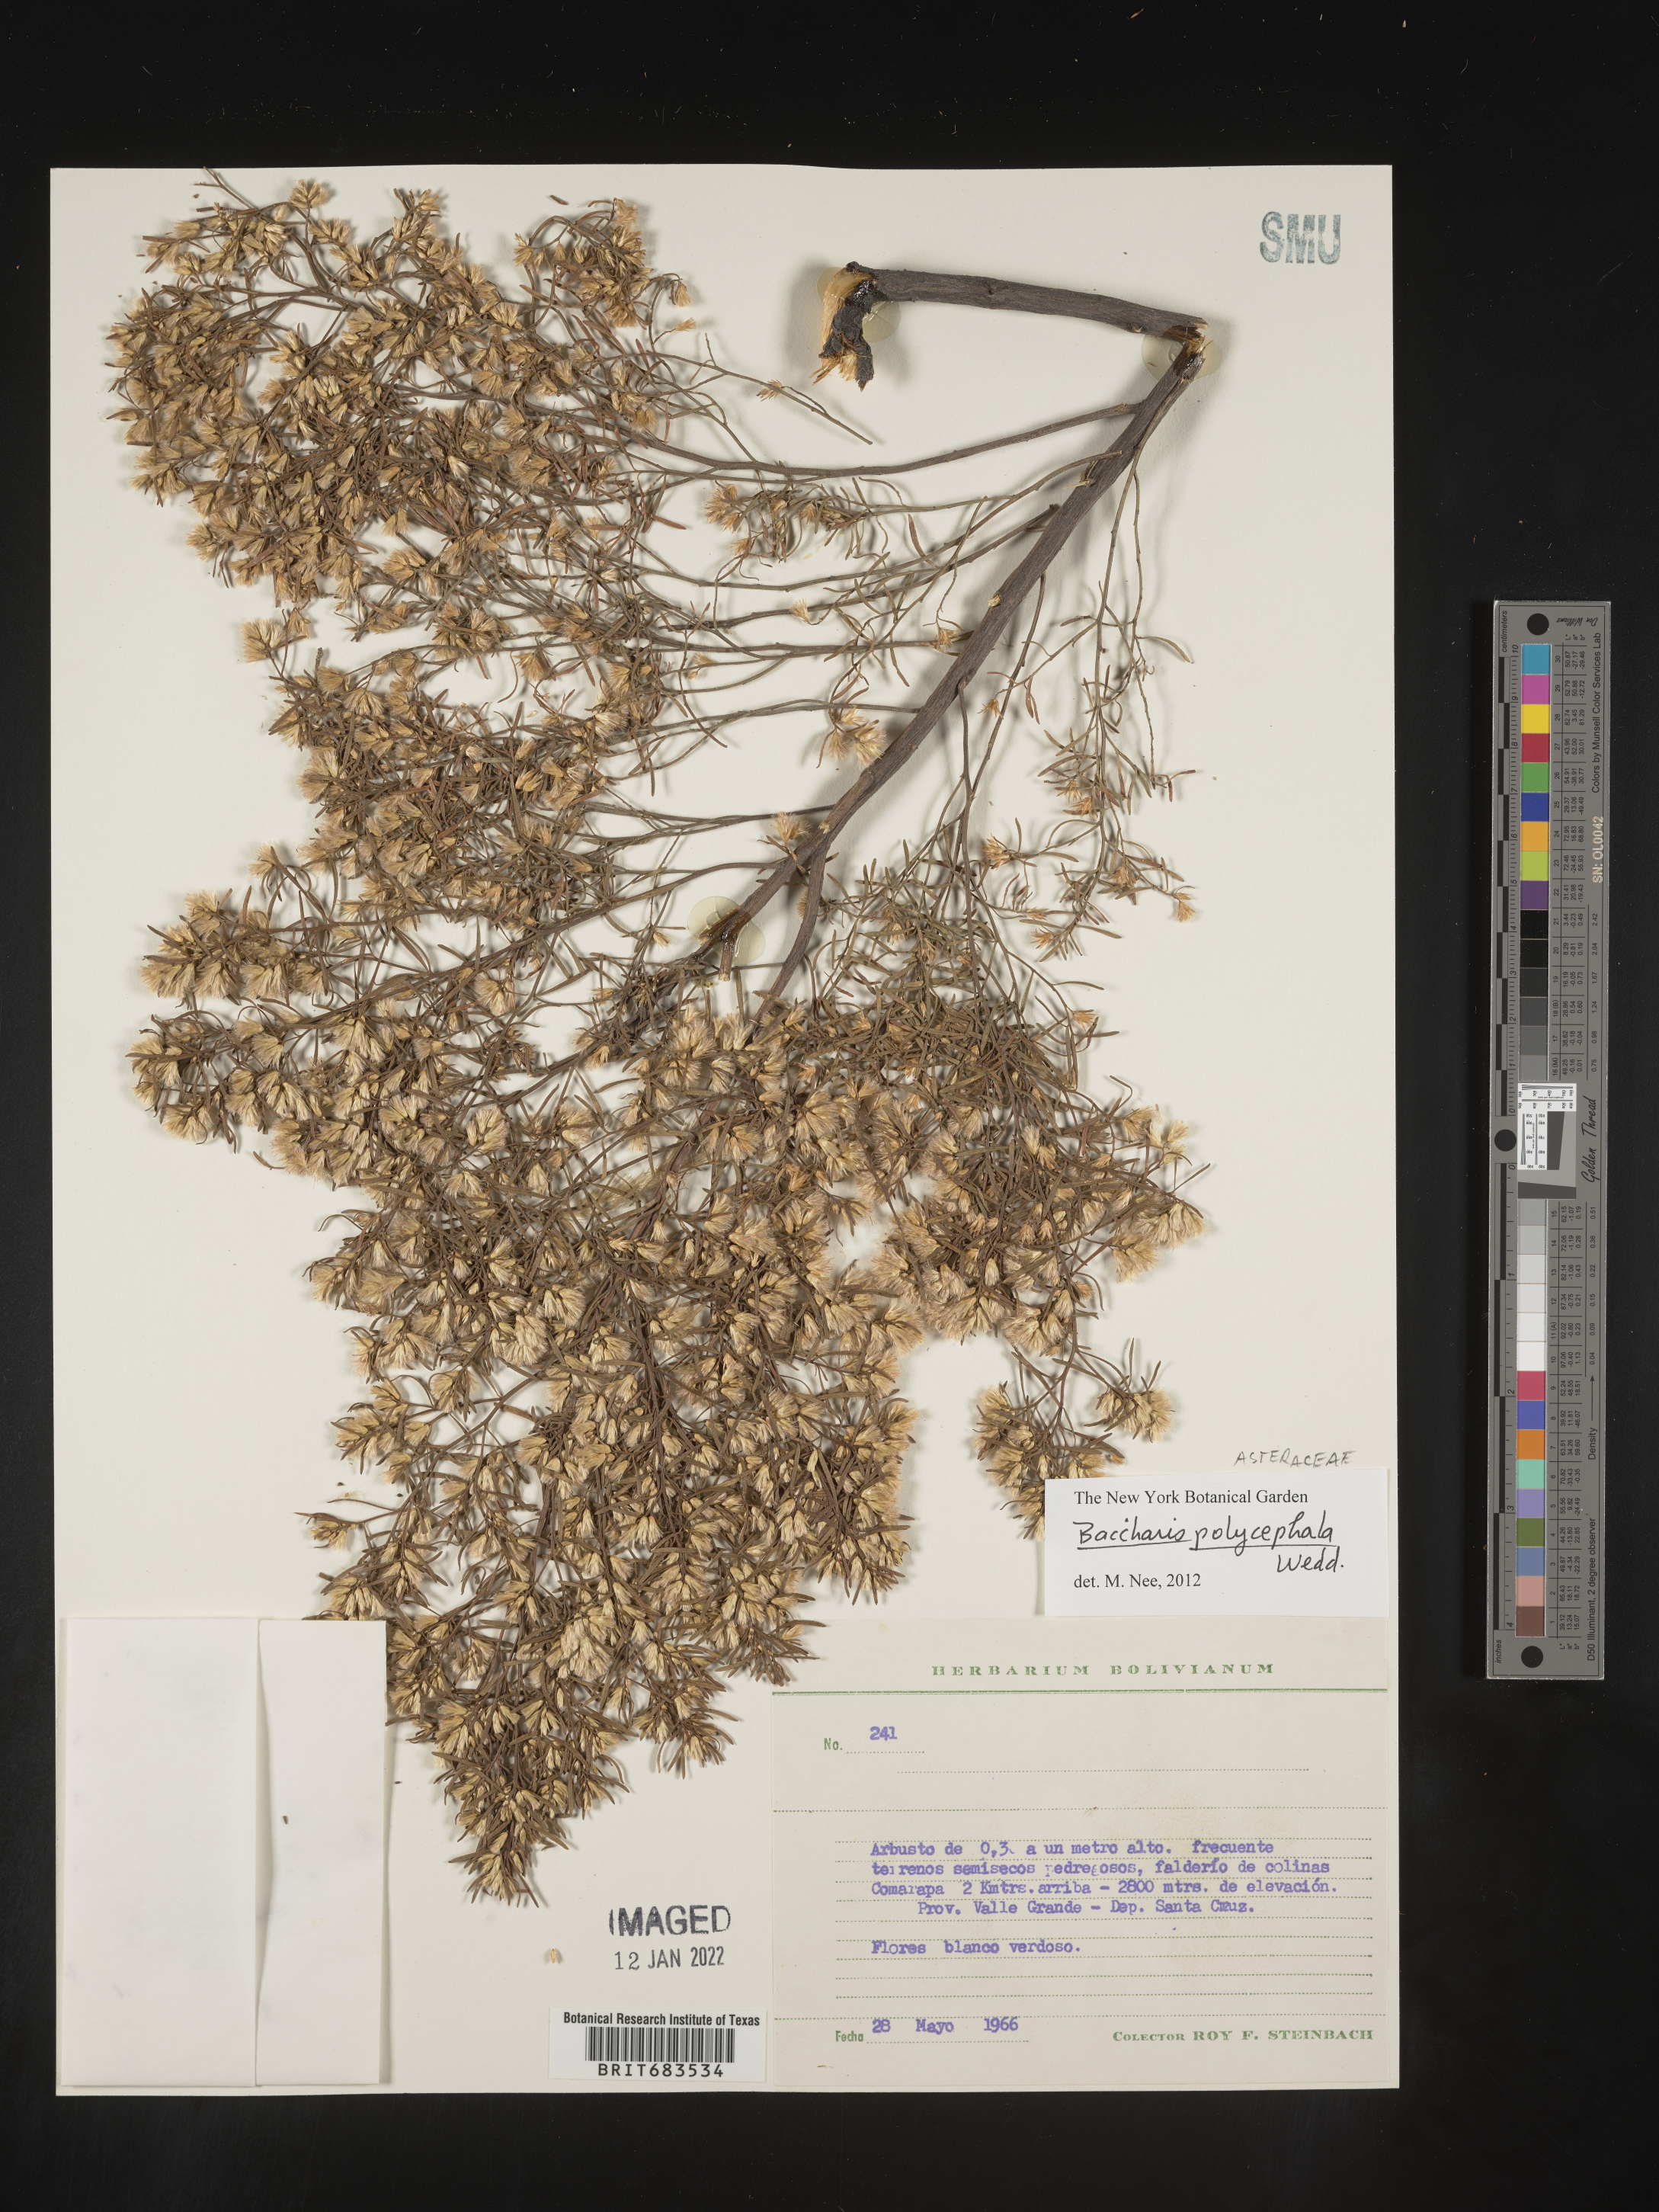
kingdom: Plantae
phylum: Tracheophyta
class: Magnoliopsida
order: Asterales
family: Asteraceae
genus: Baccharis
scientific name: Baccharis
